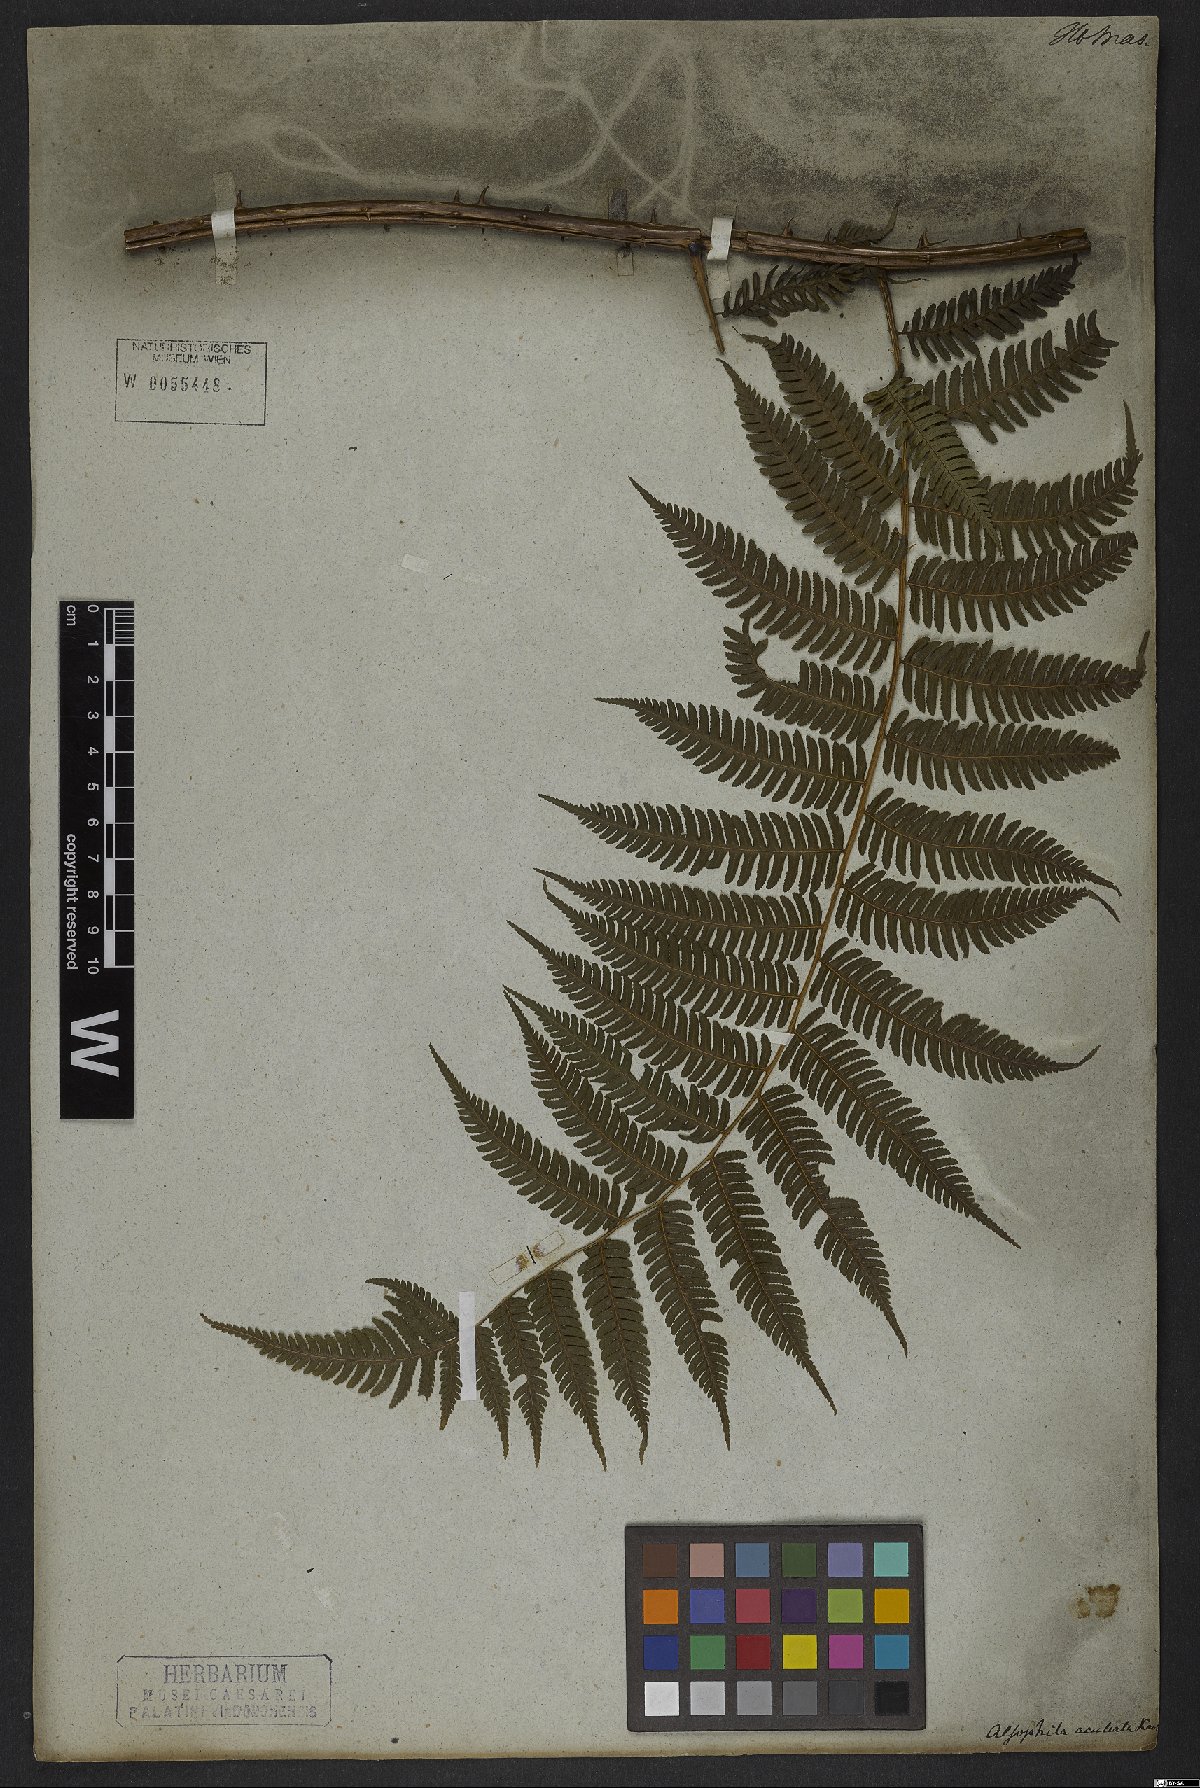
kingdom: Plantae
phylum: Tracheophyta
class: Polypodiopsida
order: Cyatheales
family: Cyatheaceae
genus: Cyathea
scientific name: Cyathea microdonta
